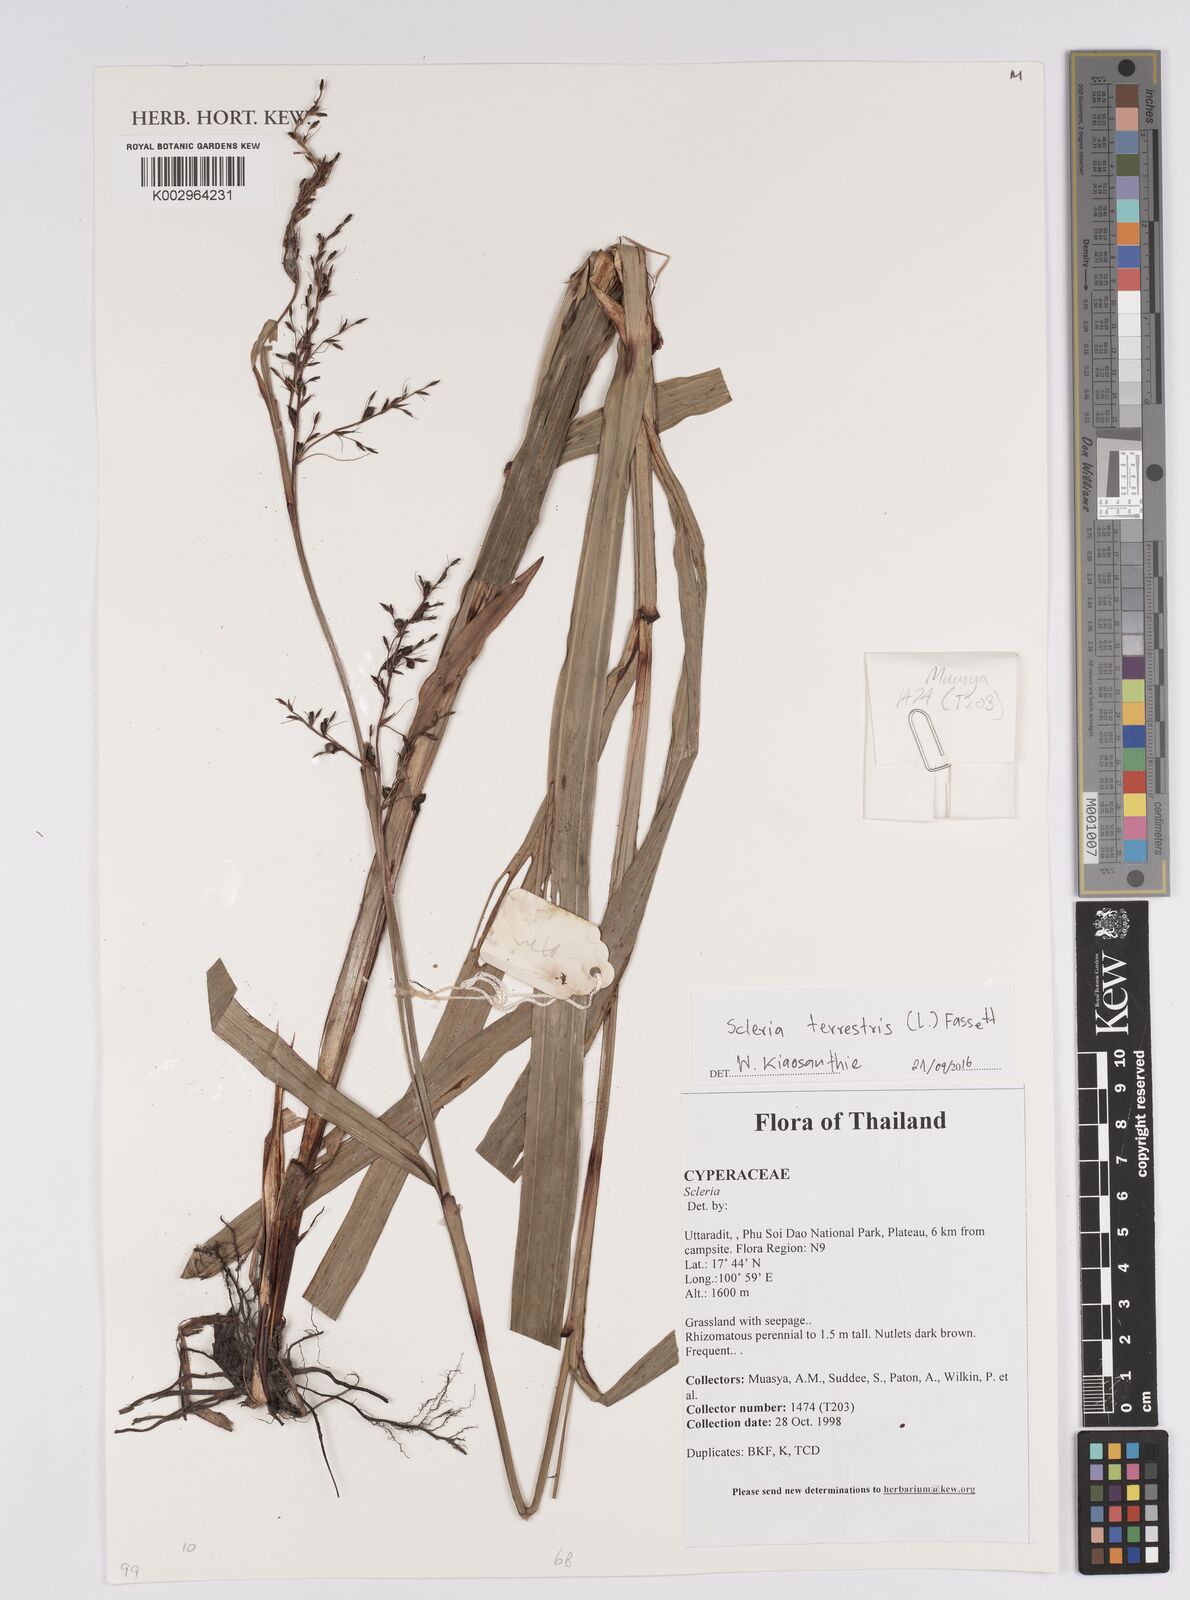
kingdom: Plantae
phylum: Tracheophyta
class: Liliopsida
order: Poales
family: Cyperaceae
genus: Scleria
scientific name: Scleria terrestris
